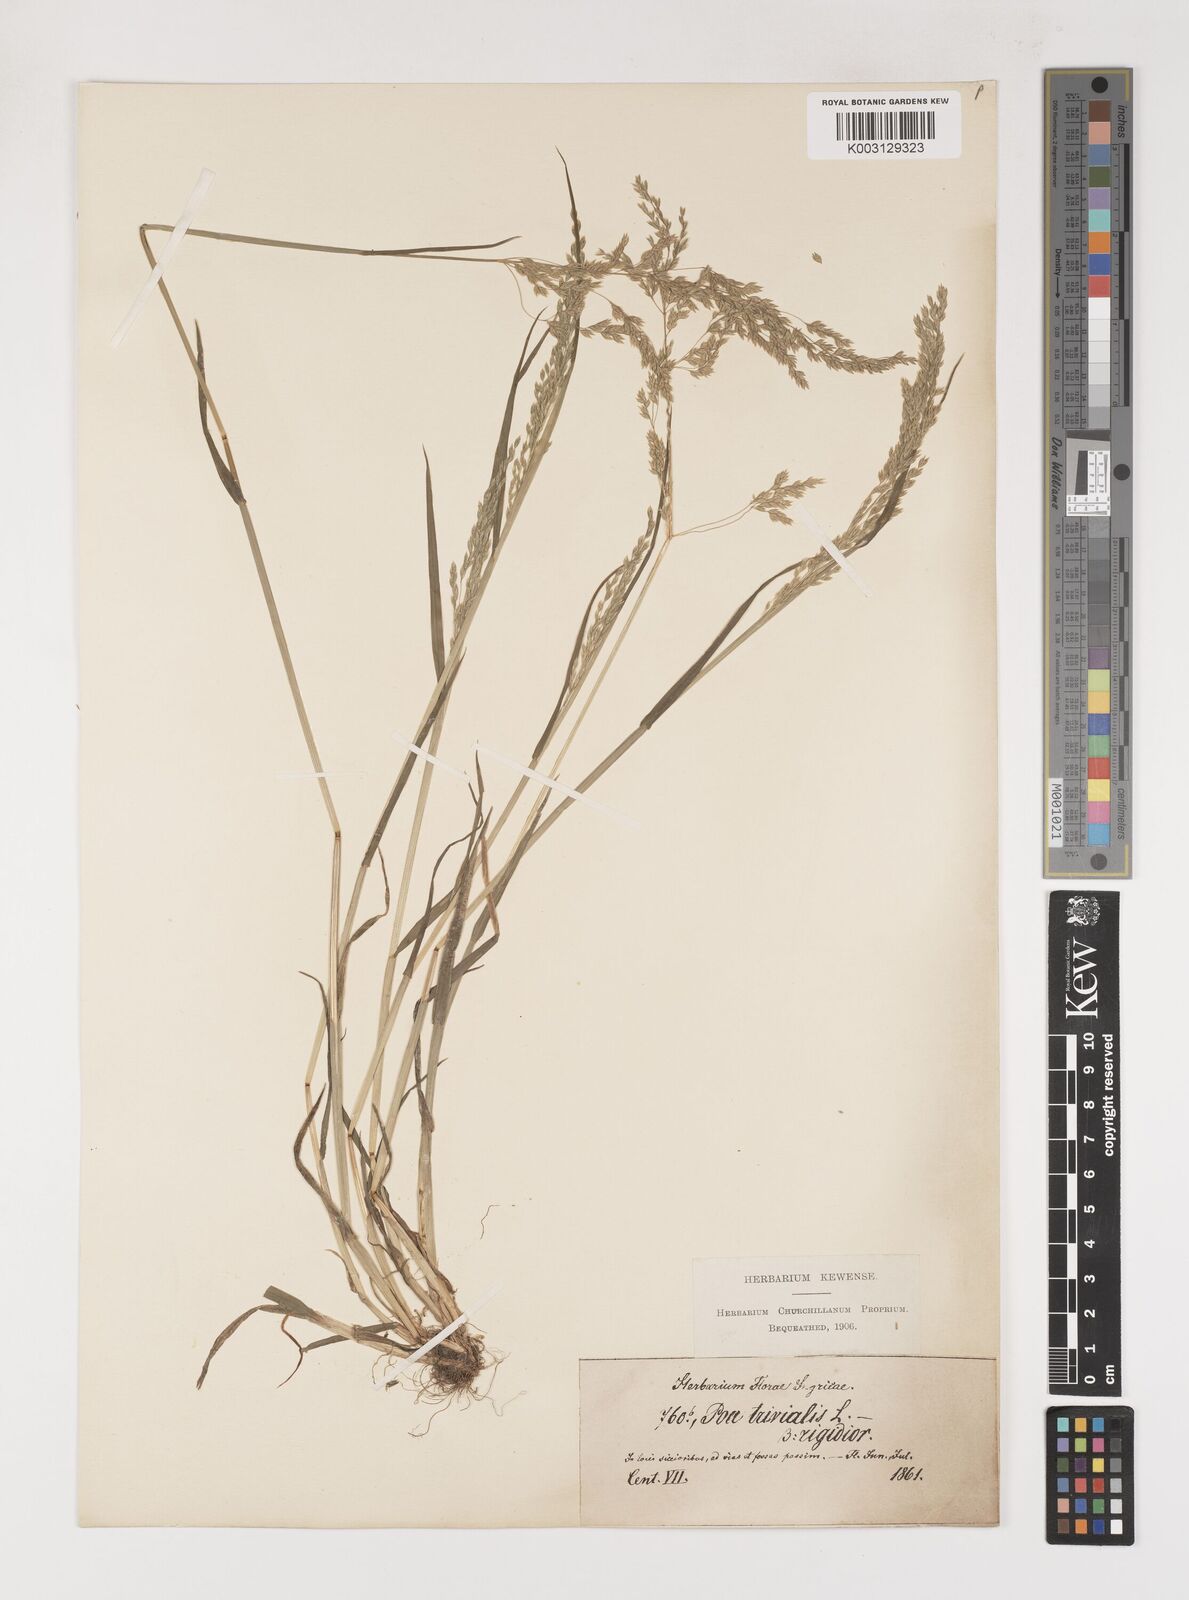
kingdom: Plantae
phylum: Tracheophyta
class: Liliopsida
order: Poales
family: Poaceae
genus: Poa
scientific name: Poa trivialis
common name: Rough bluegrass
